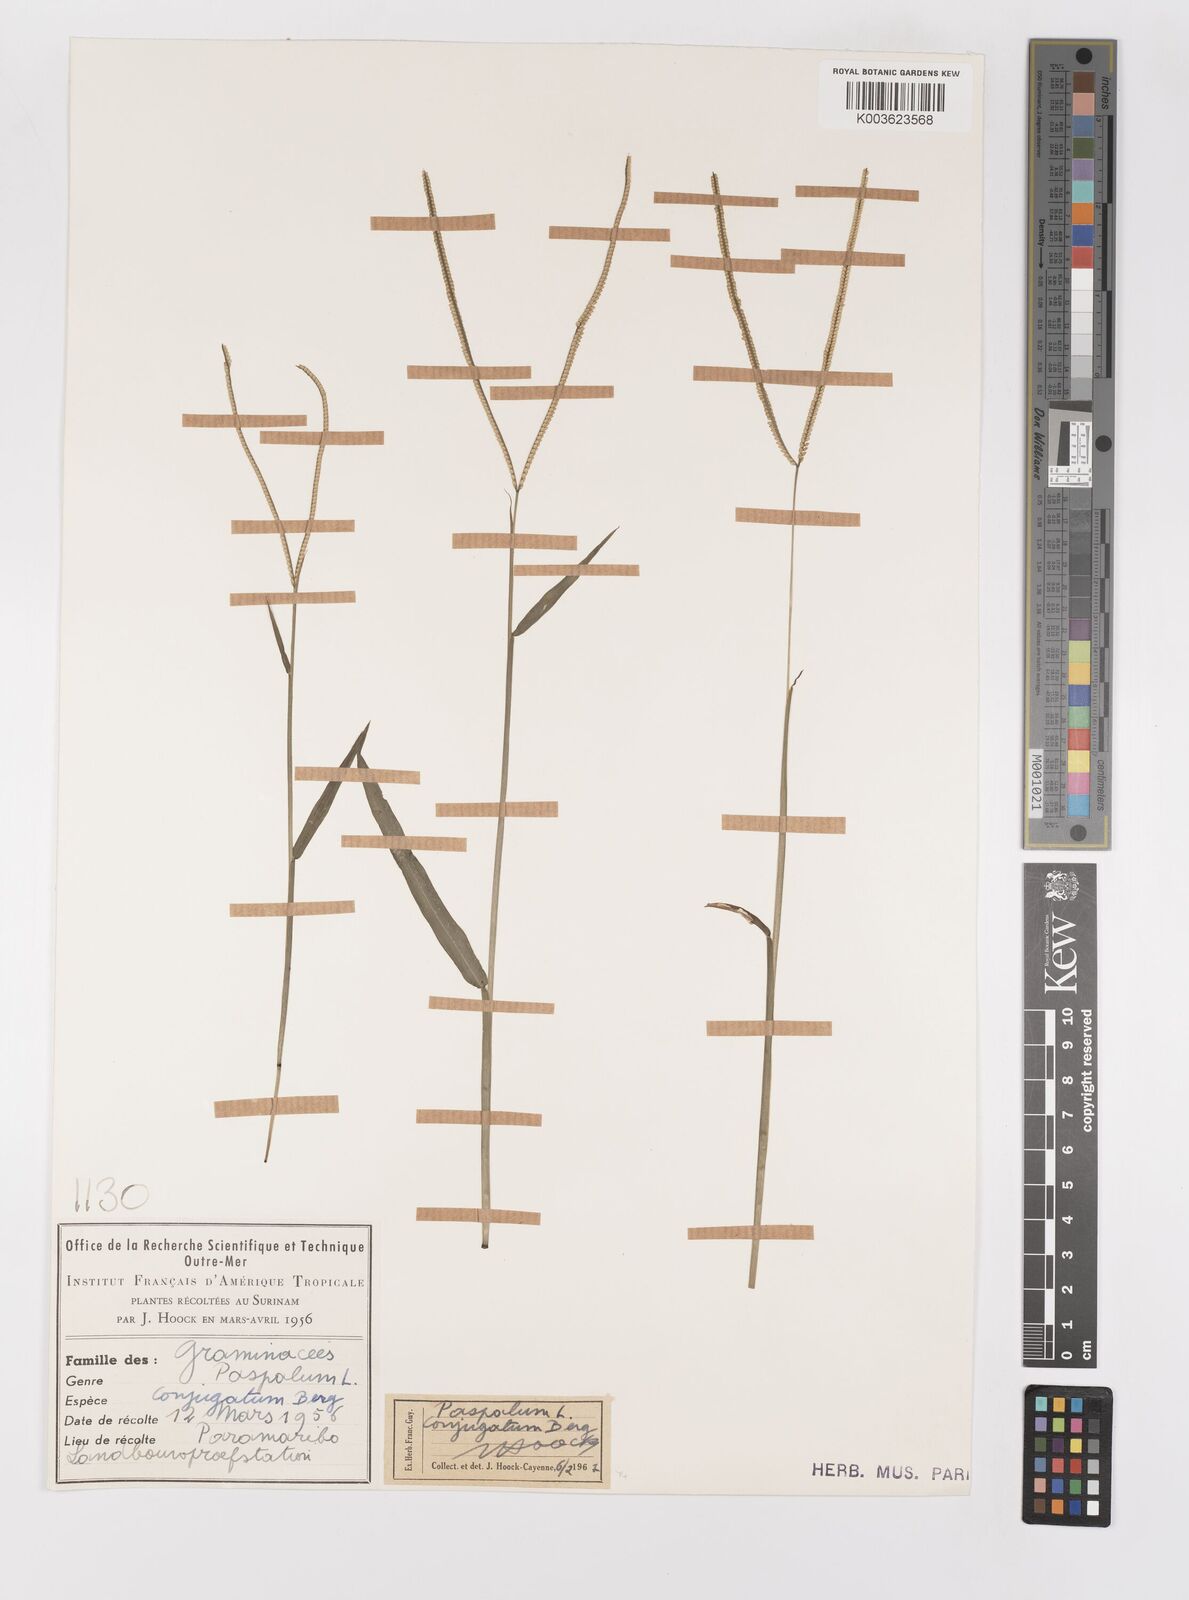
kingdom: Plantae
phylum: Tracheophyta
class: Liliopsida
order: Poales
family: Poaceae
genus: Paspalum
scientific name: Paspalum conjugatum
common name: Hilograss
